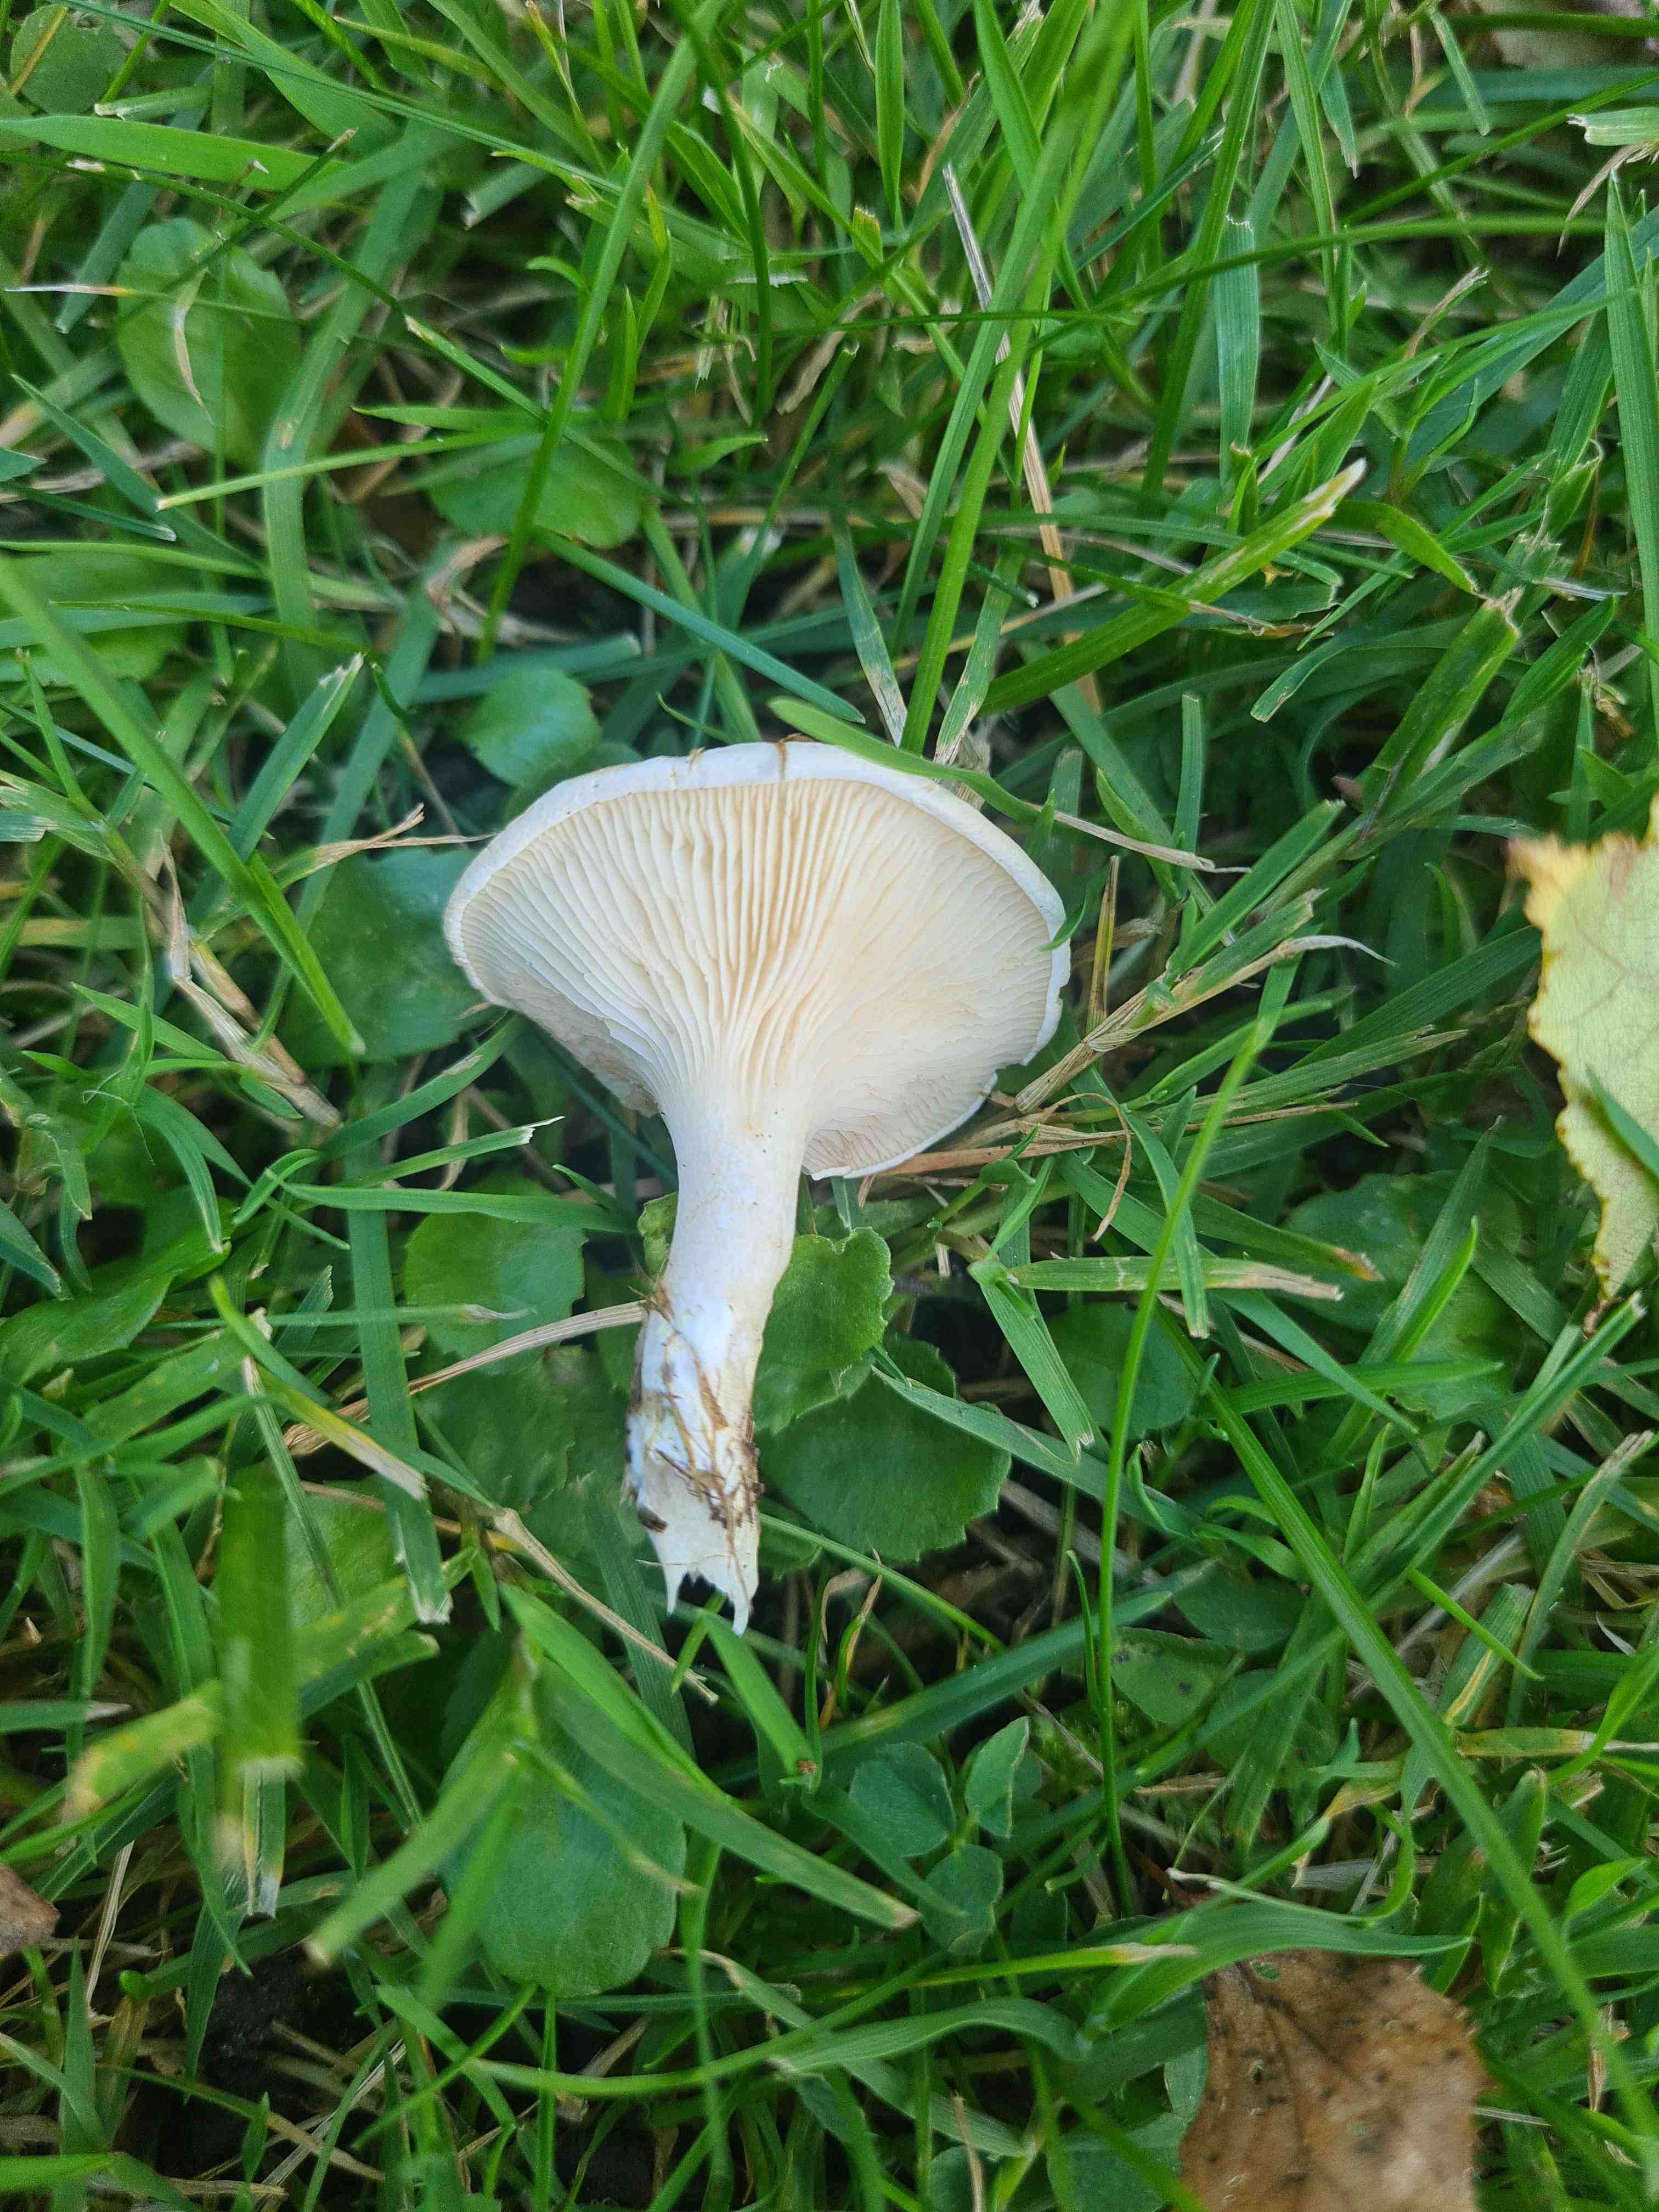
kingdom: Fungi
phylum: Basidiomycota
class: Agaricomycetes
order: Agaricales
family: Entolomataceae
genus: Clitopilus
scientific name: Clitopilus prunulus
